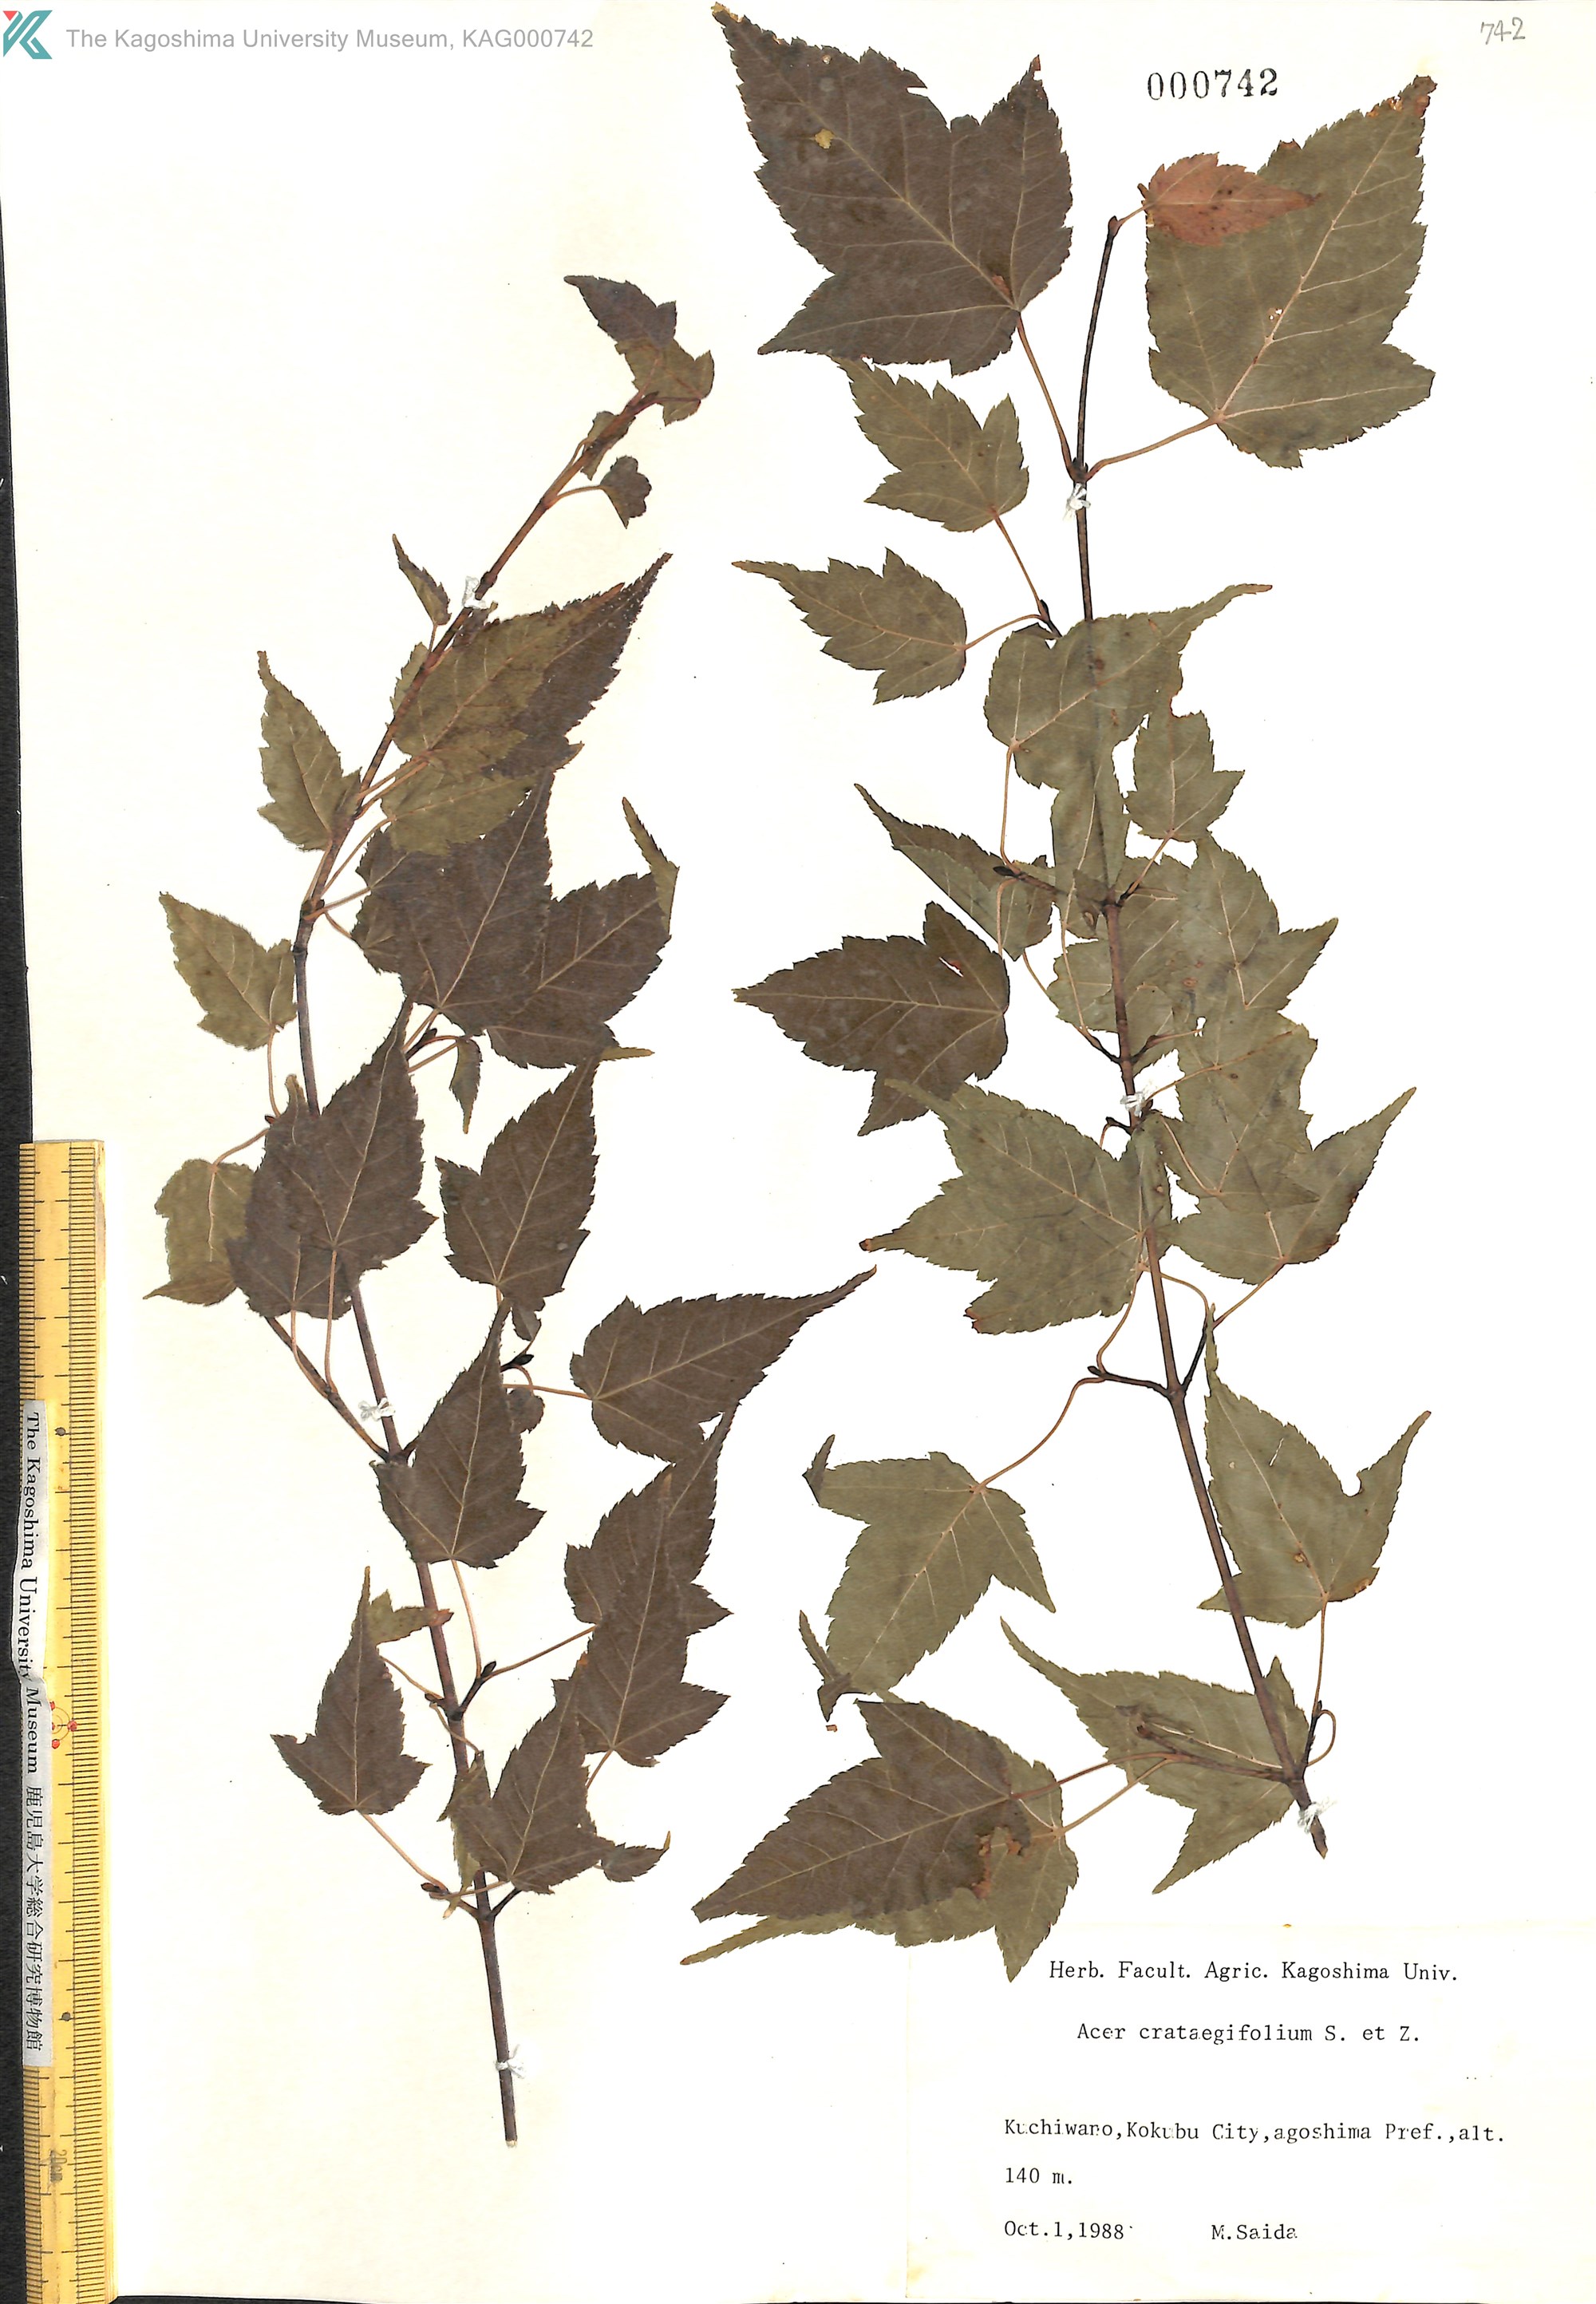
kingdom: Plantae
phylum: Tracheophyta
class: Magnoliopsida
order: Sapindales
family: Sapindaceae
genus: Acer
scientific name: Acer crataegifolium
